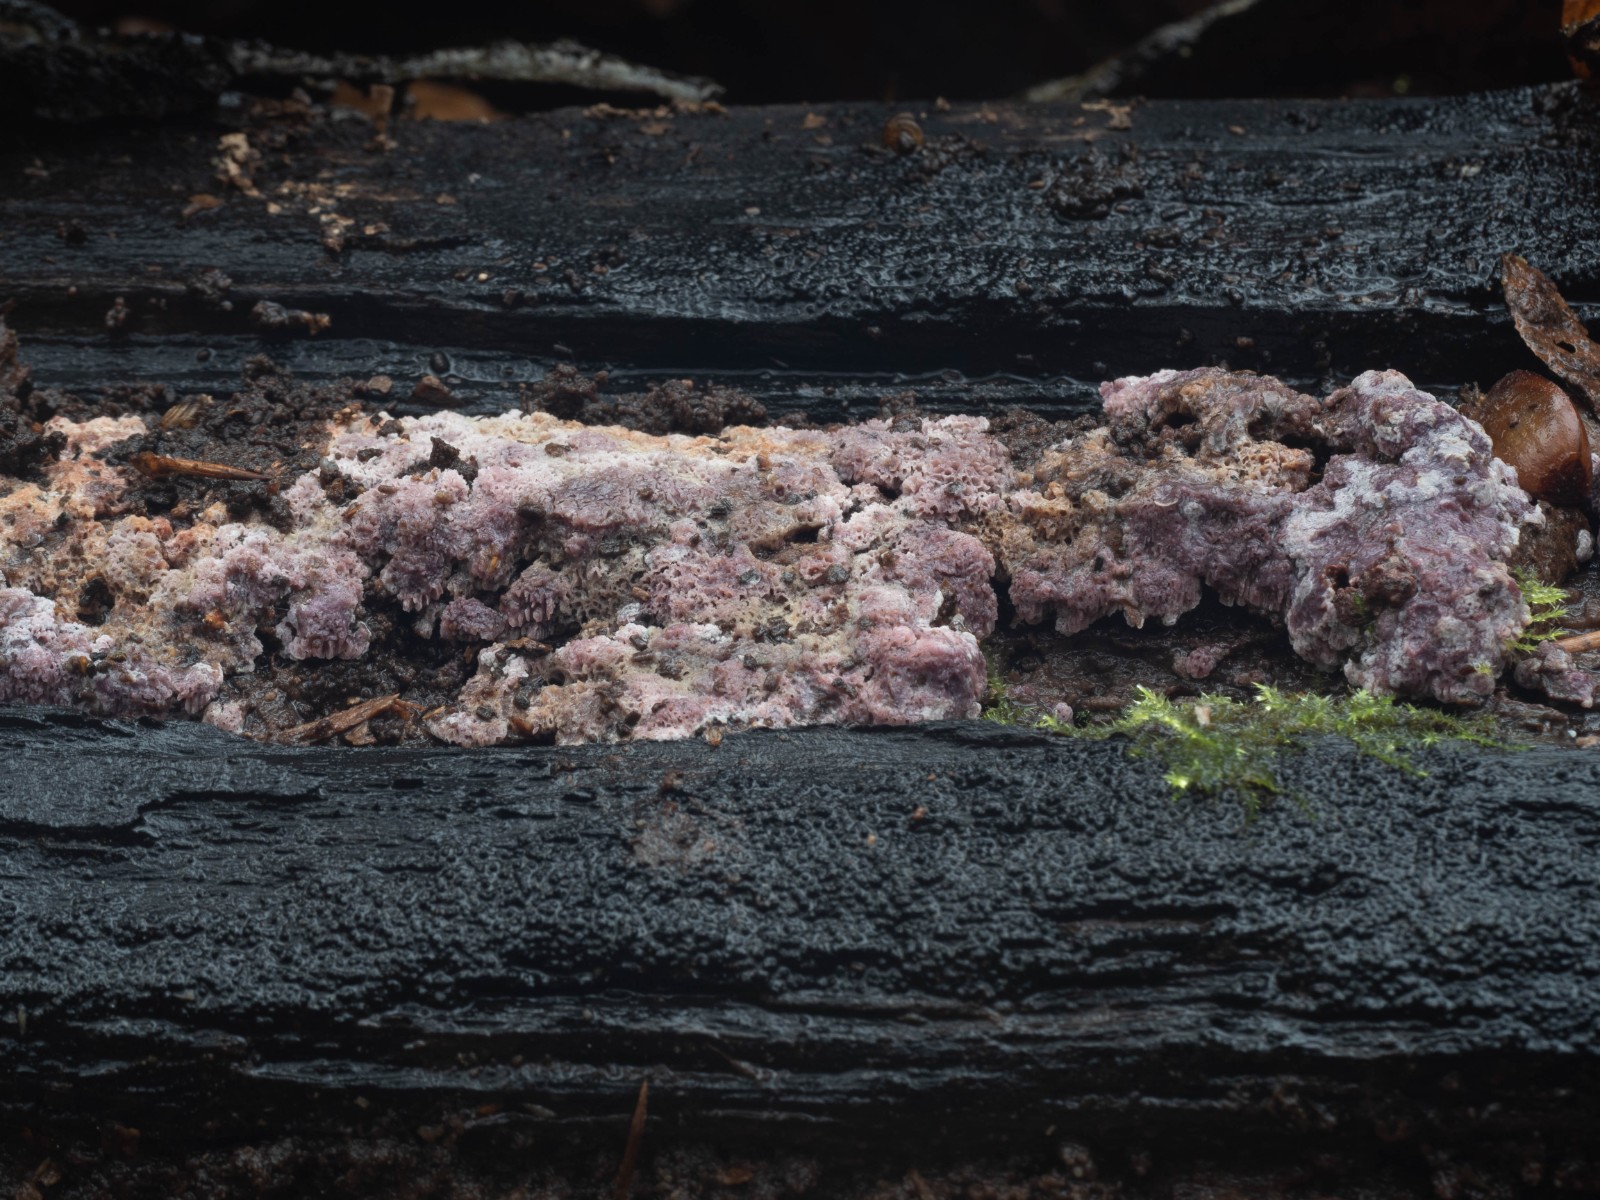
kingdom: Fungi
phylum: Basidiomycota
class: Agaricomycetes
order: Polyporales
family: Irpicaceae
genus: Ceriporia
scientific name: Ceriporia excelsa
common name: lilla voksporesvamp
